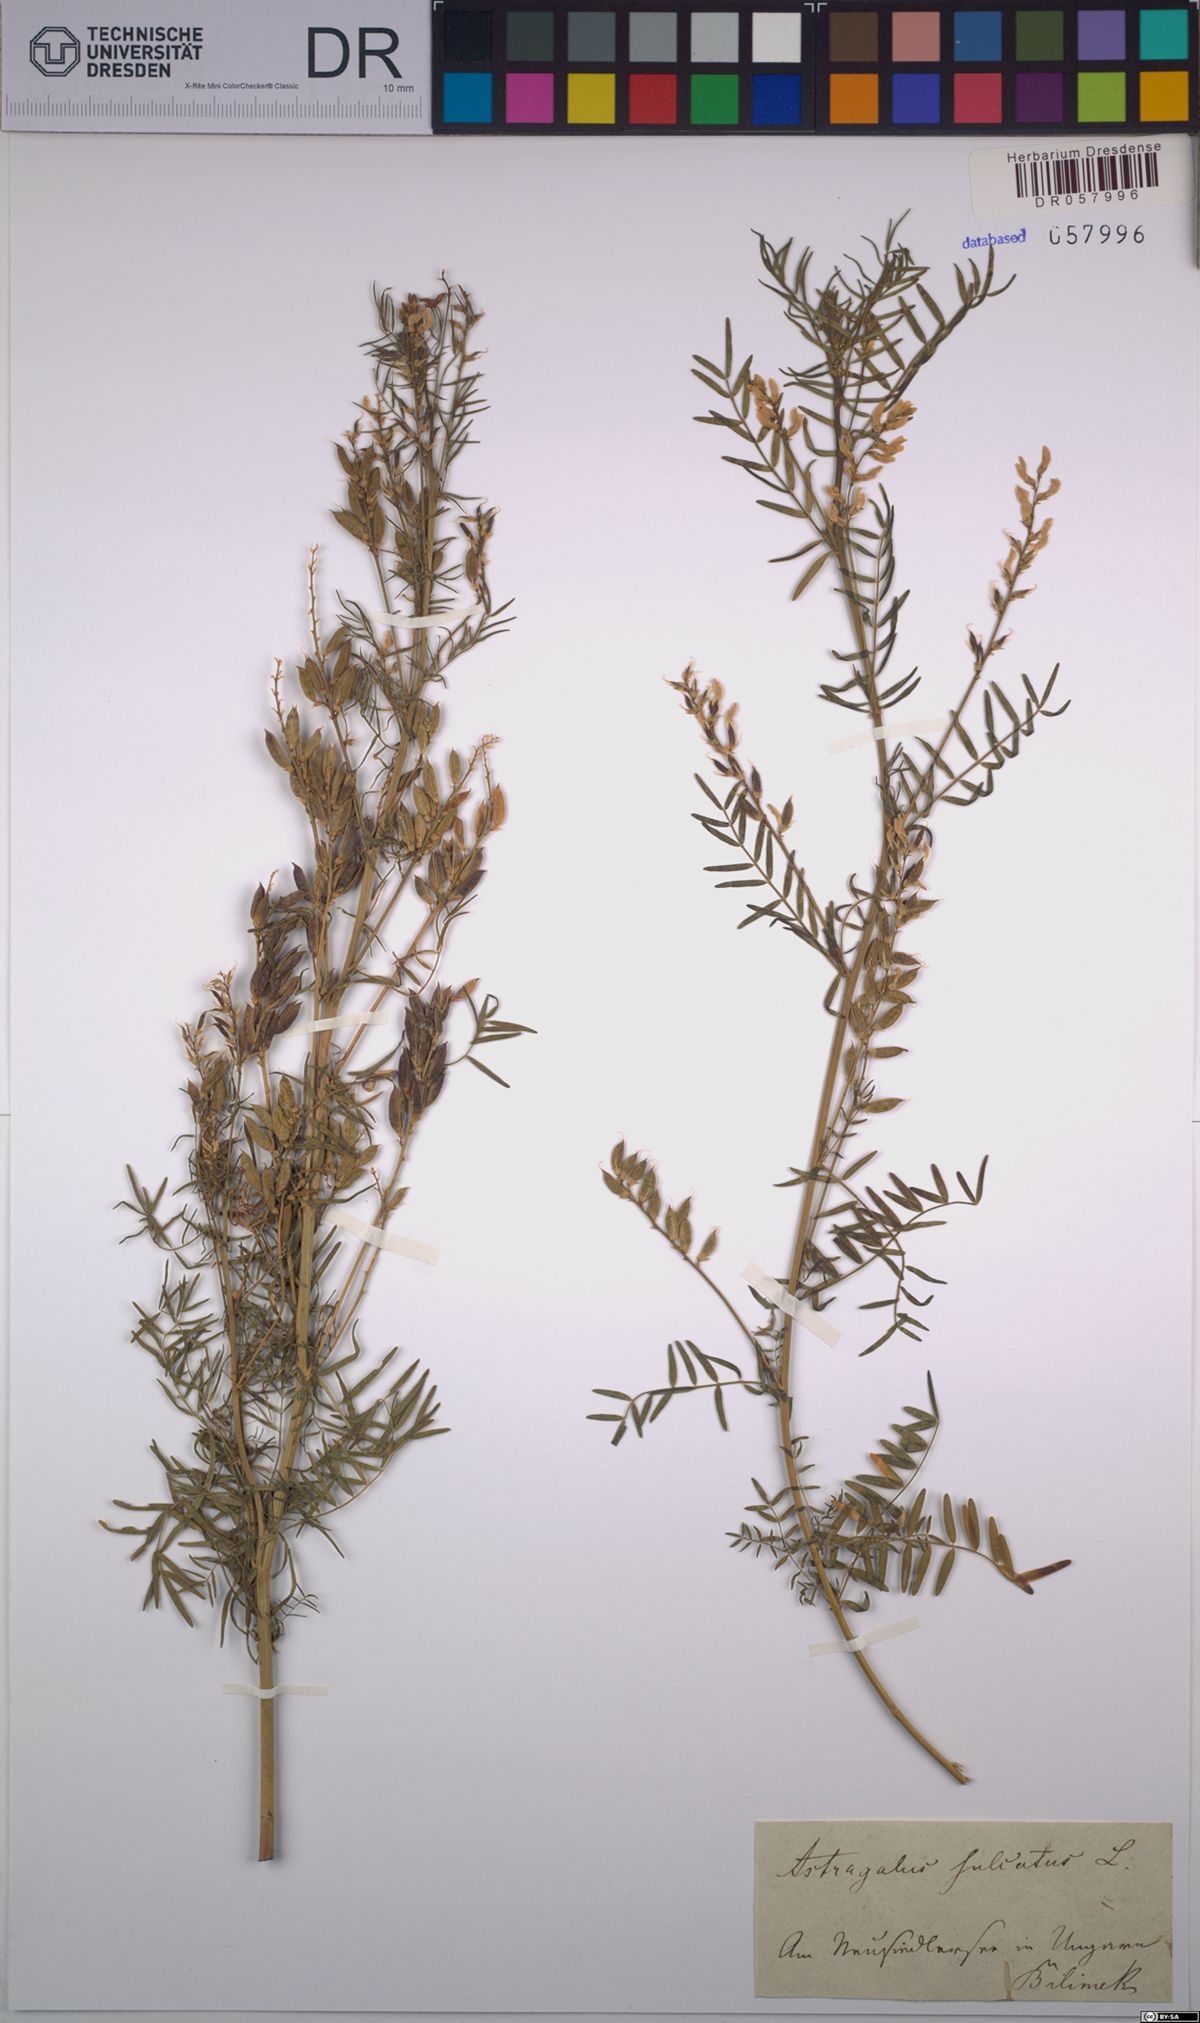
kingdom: Plantae
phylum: Tracheophyta
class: Magnoliopsida
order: Fabales
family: Fabaceae
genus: Astragalus
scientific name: Astragalus falcatus
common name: Russian sickle milk-vetch
